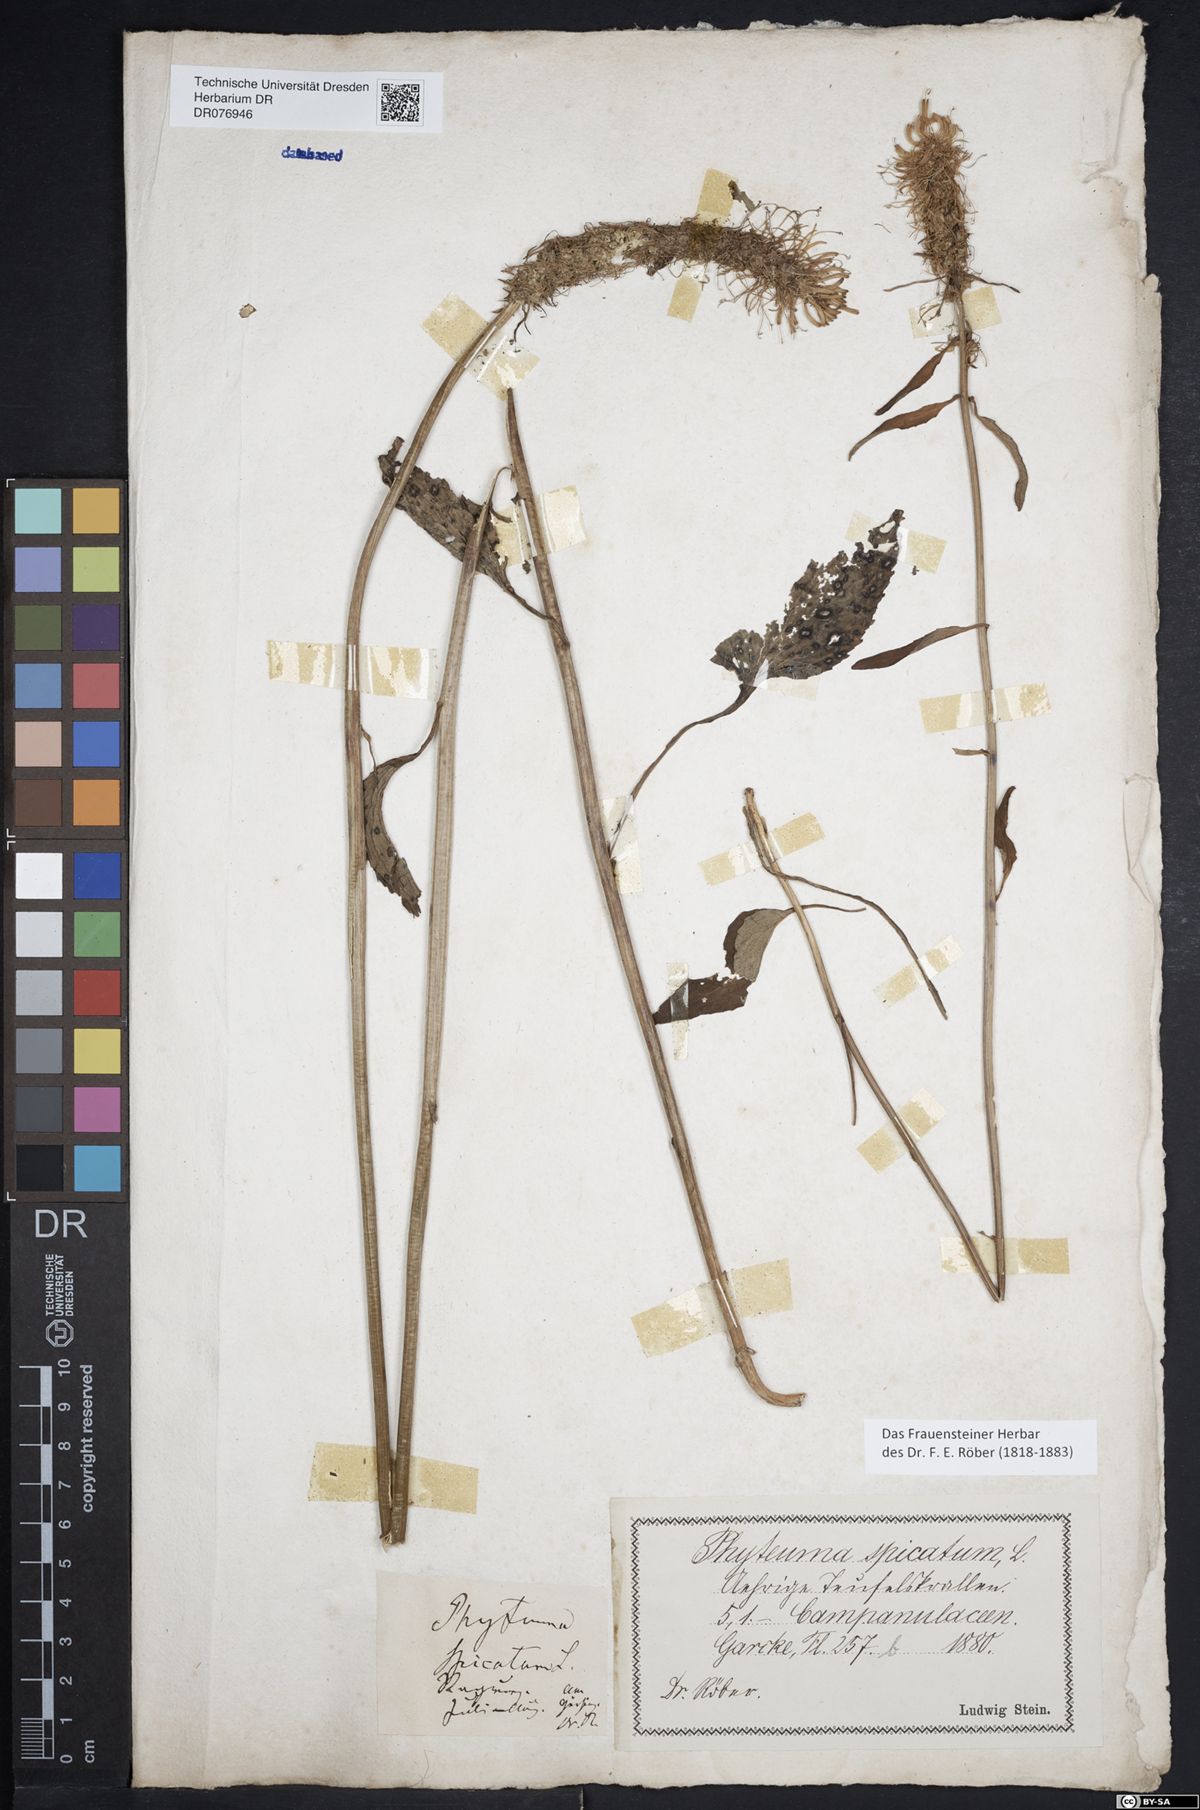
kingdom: Plantae
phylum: Tracheophyta
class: Magnoliopsida
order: Asterales
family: Campanulaceae
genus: Phyteuma
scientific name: Phyteuma spicatum
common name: Spiked rampion
